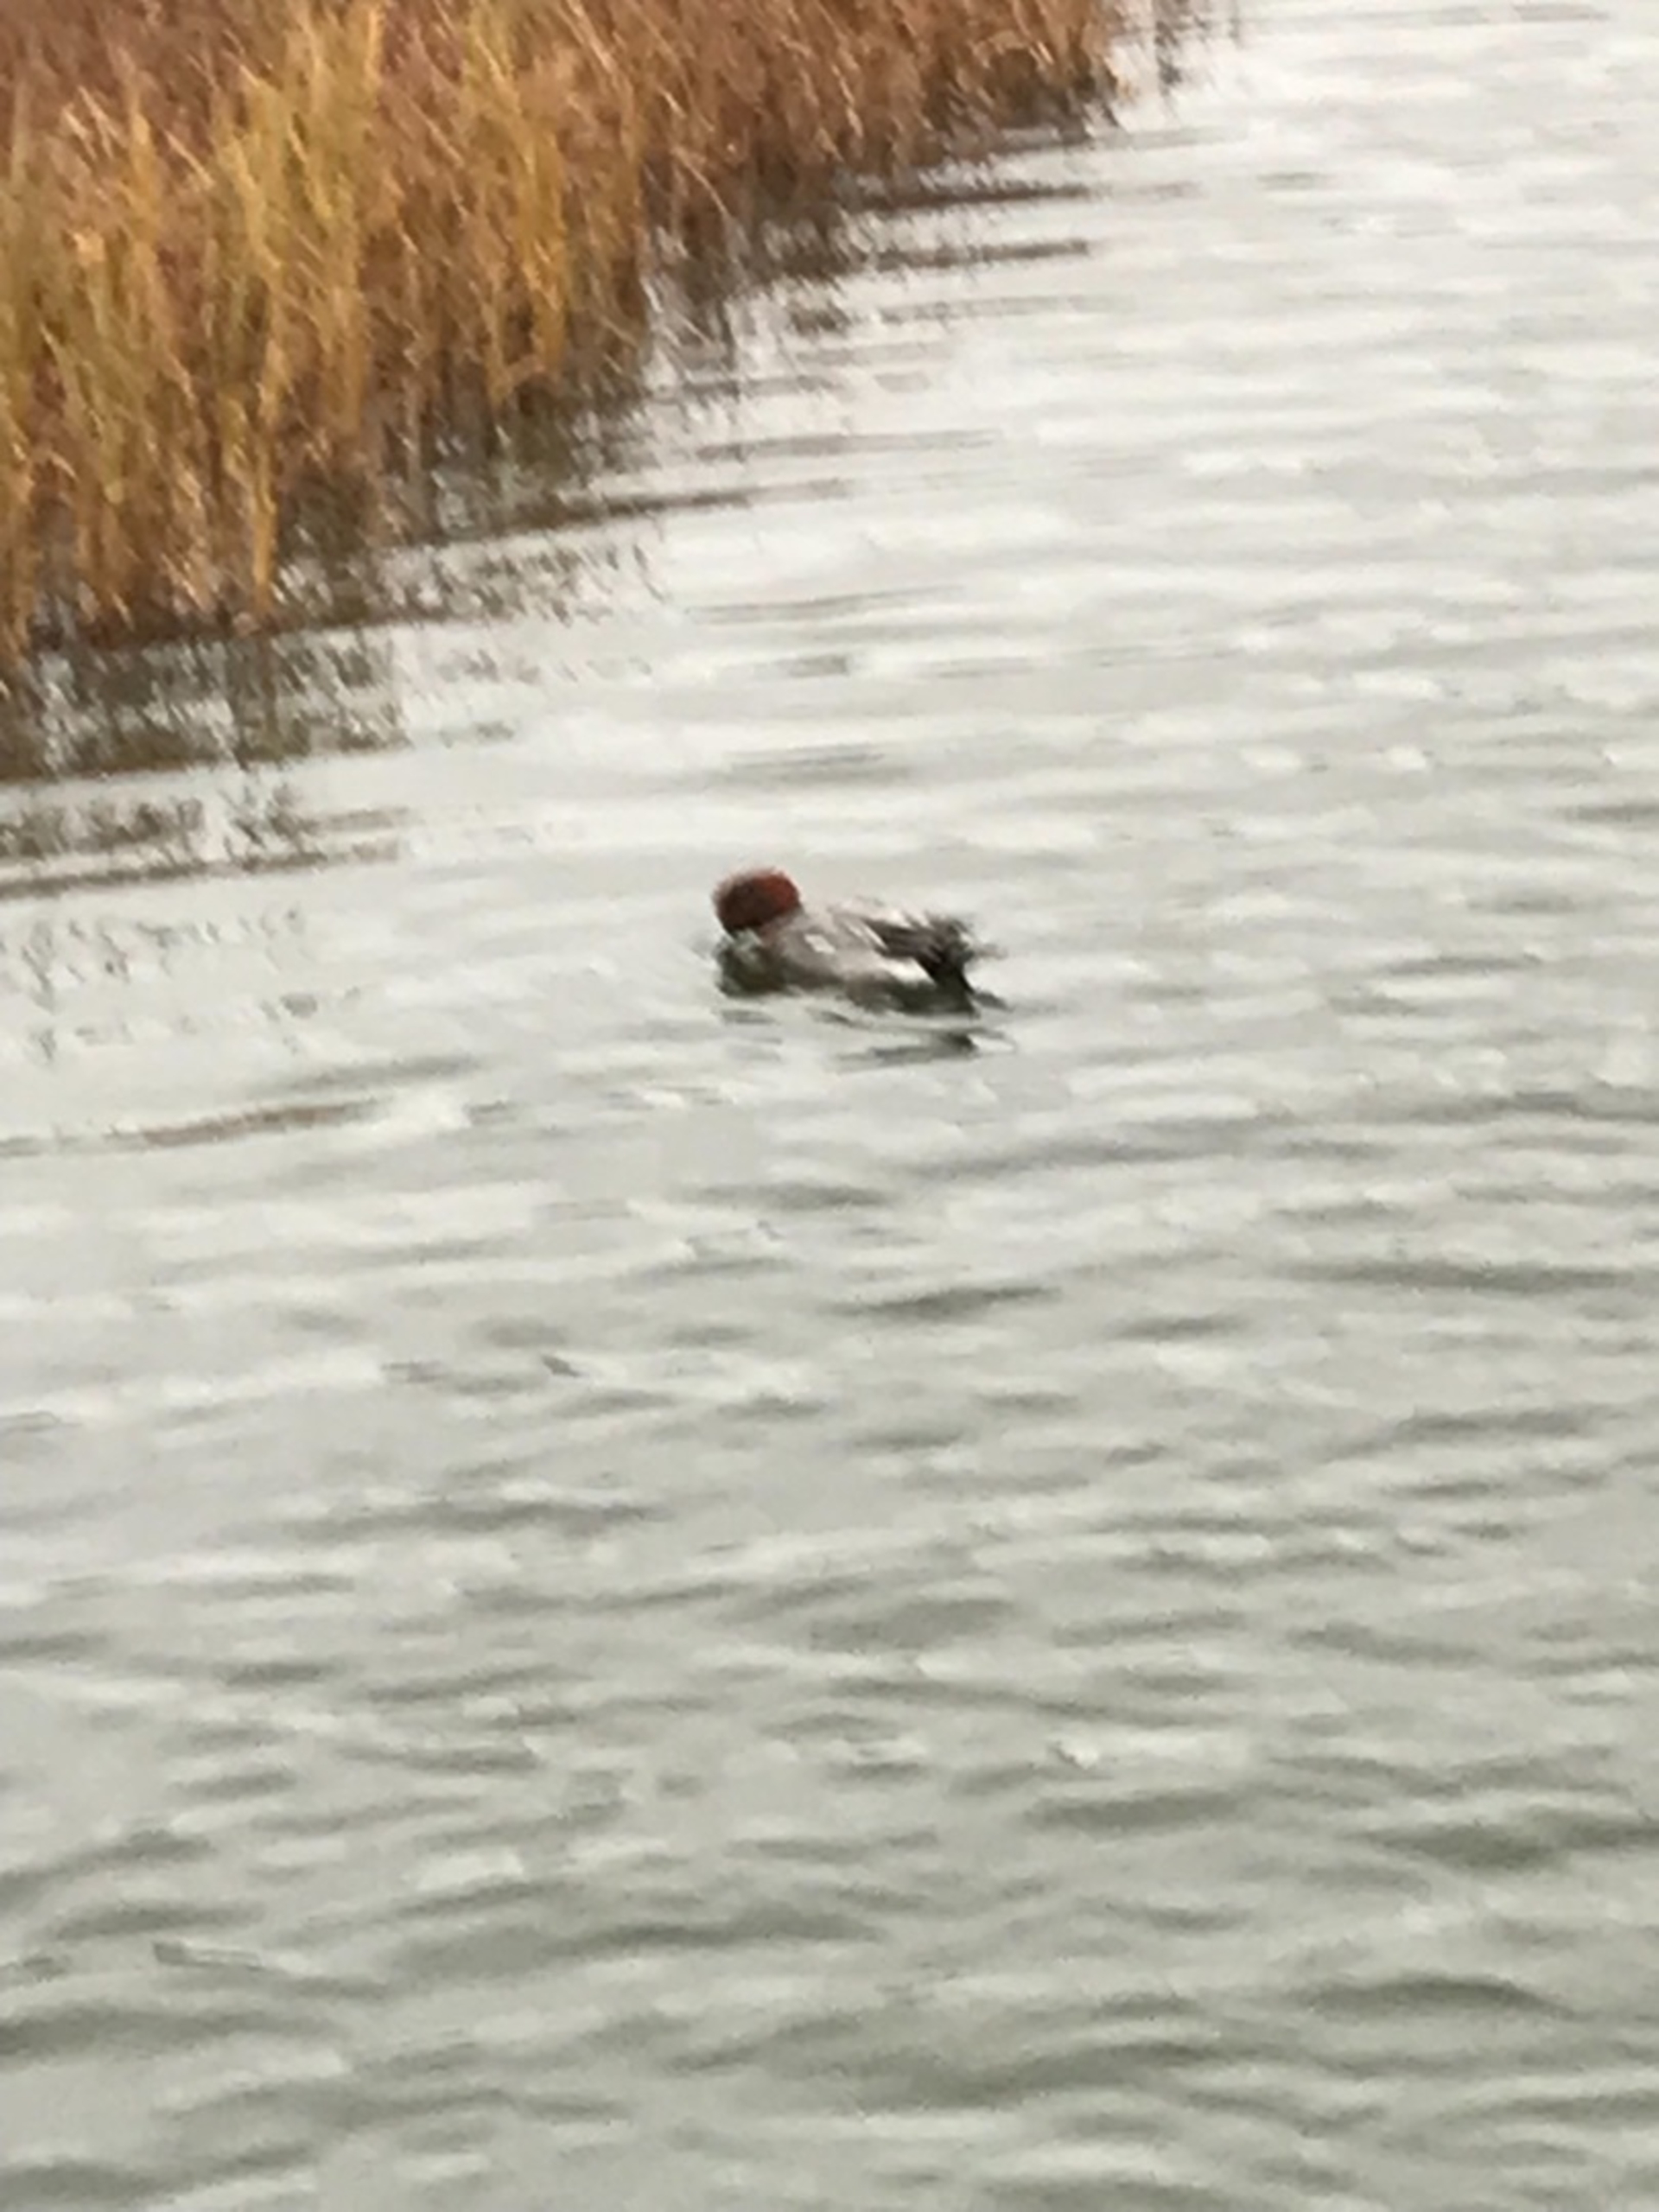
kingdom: Animalia
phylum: Chordata
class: Aves
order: Anseriformes
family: Anatidae
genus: Aythya
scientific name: Aythya ferina
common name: Taffeland
